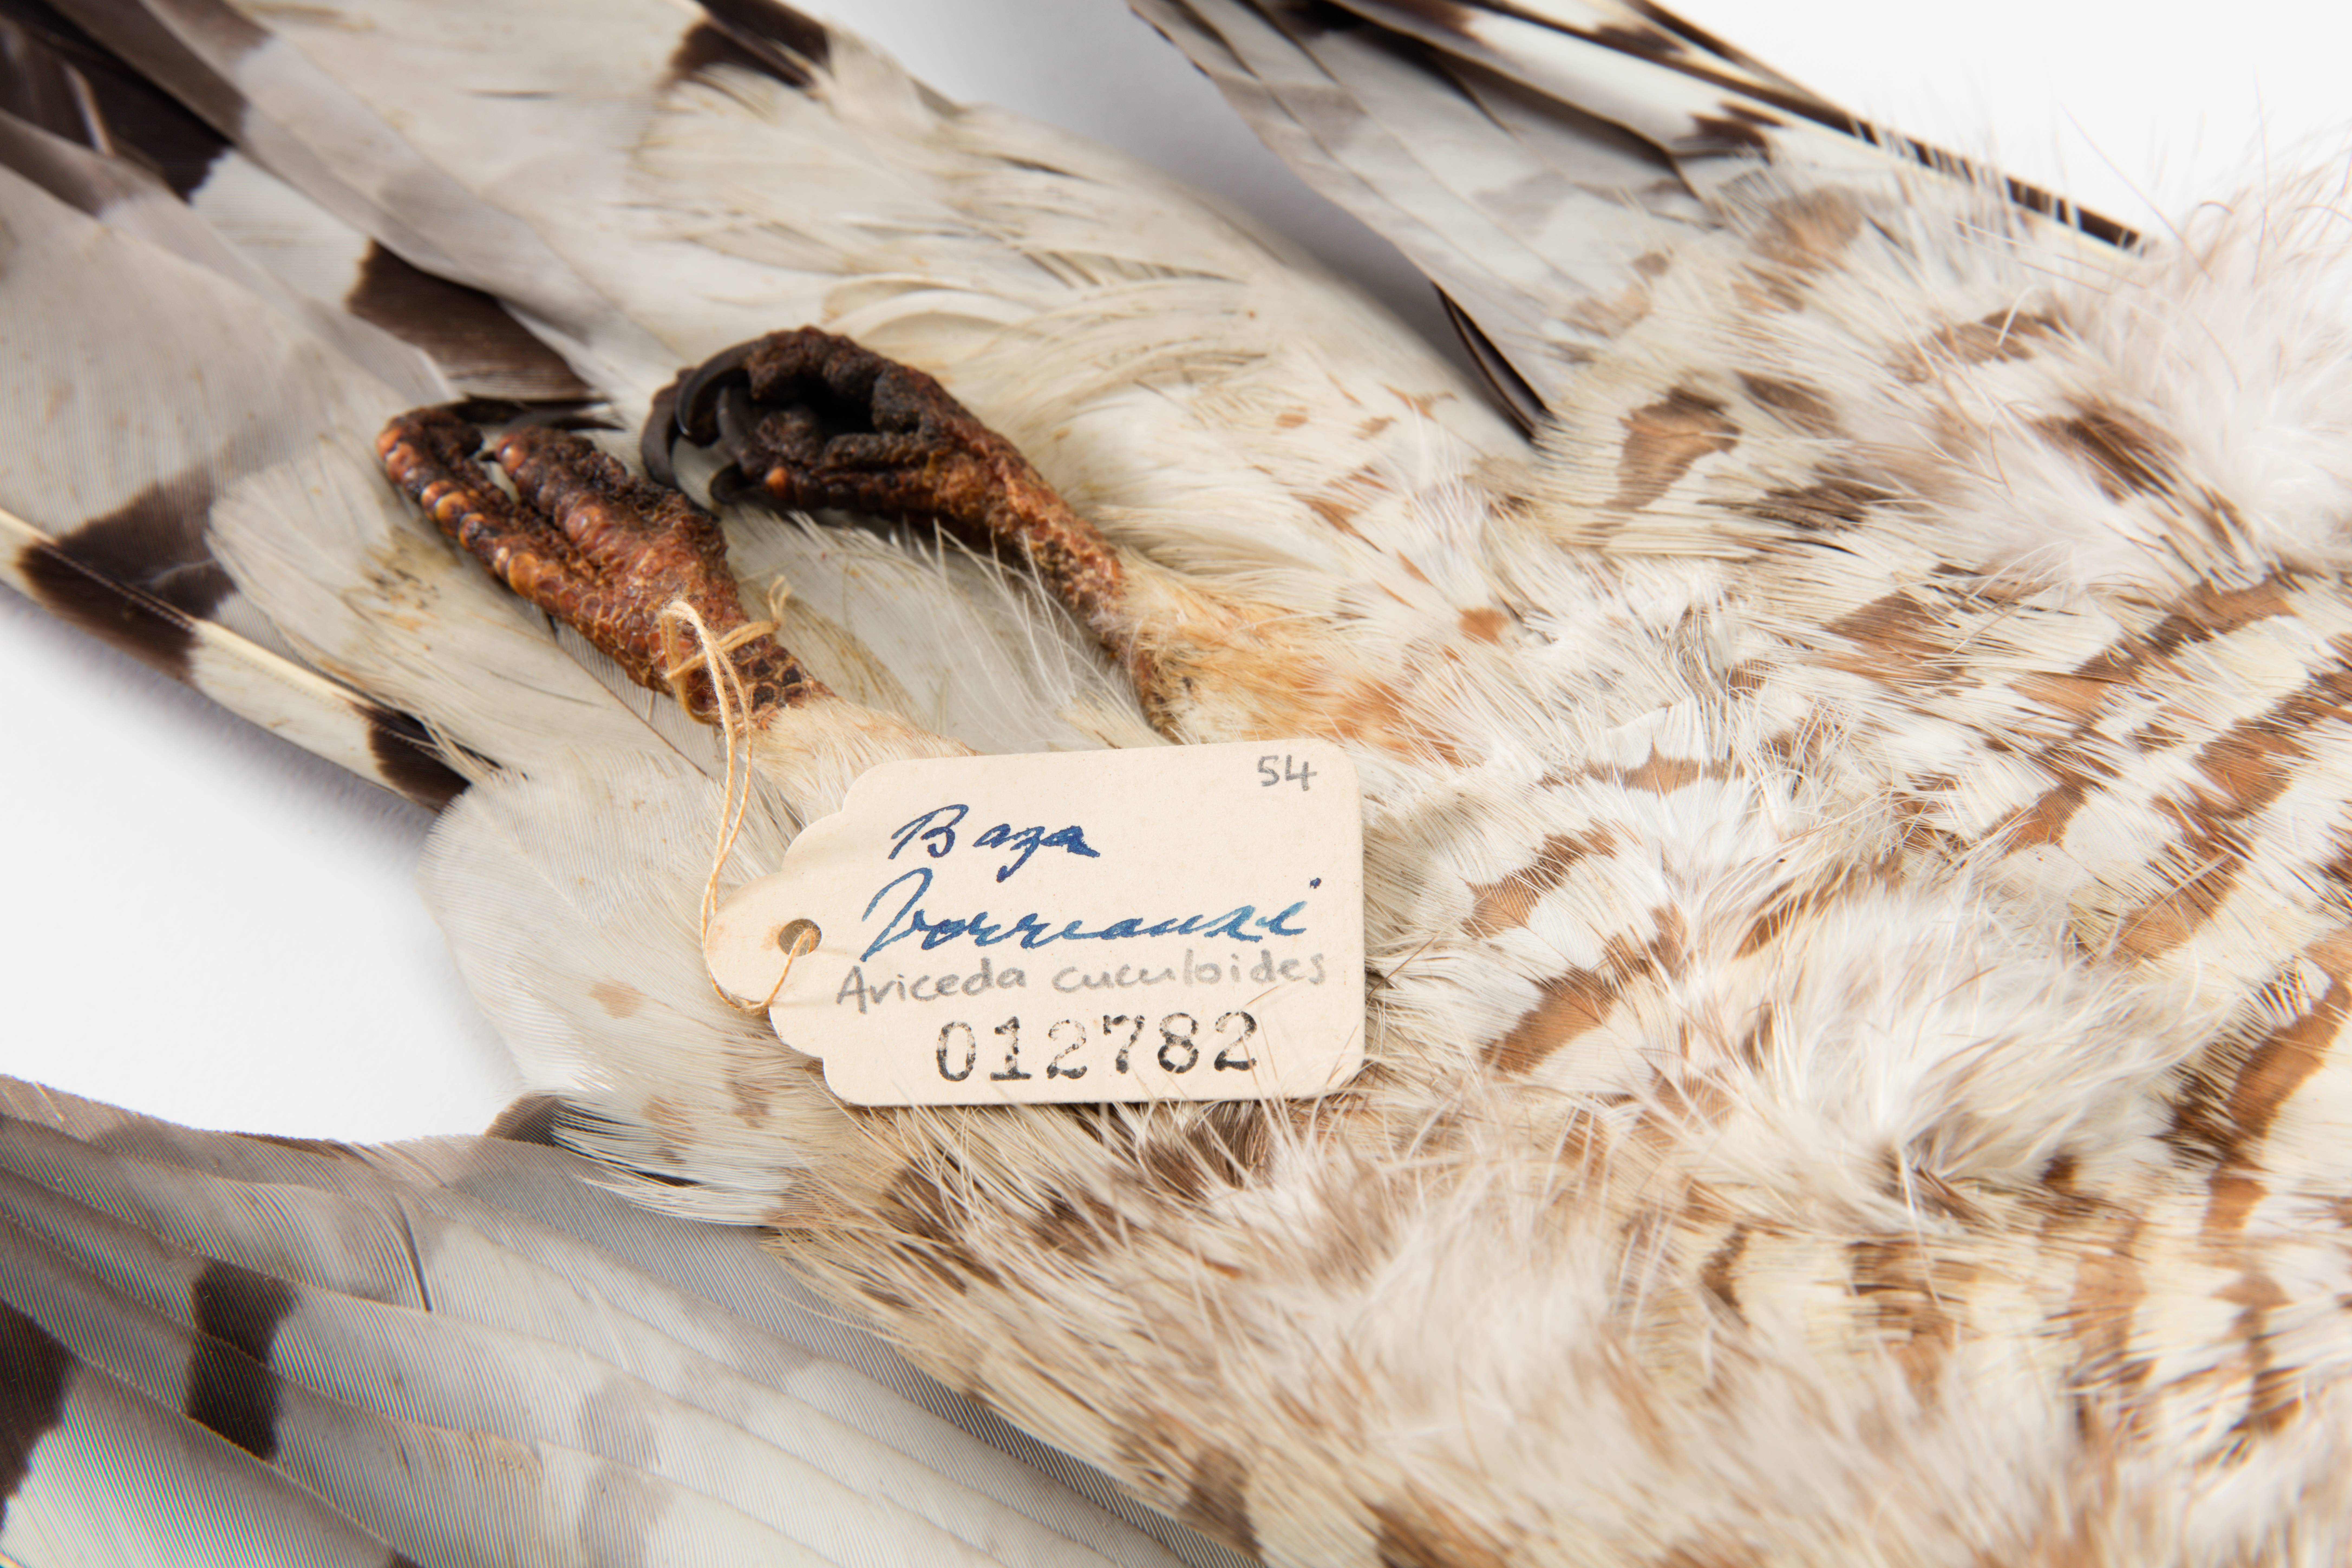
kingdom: Animalia
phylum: Chordata
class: Aves
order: Accipitriformes
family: Accipitridae
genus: Aviceda
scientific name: Aviceda cuculoides
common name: African cuckoo-hawk
